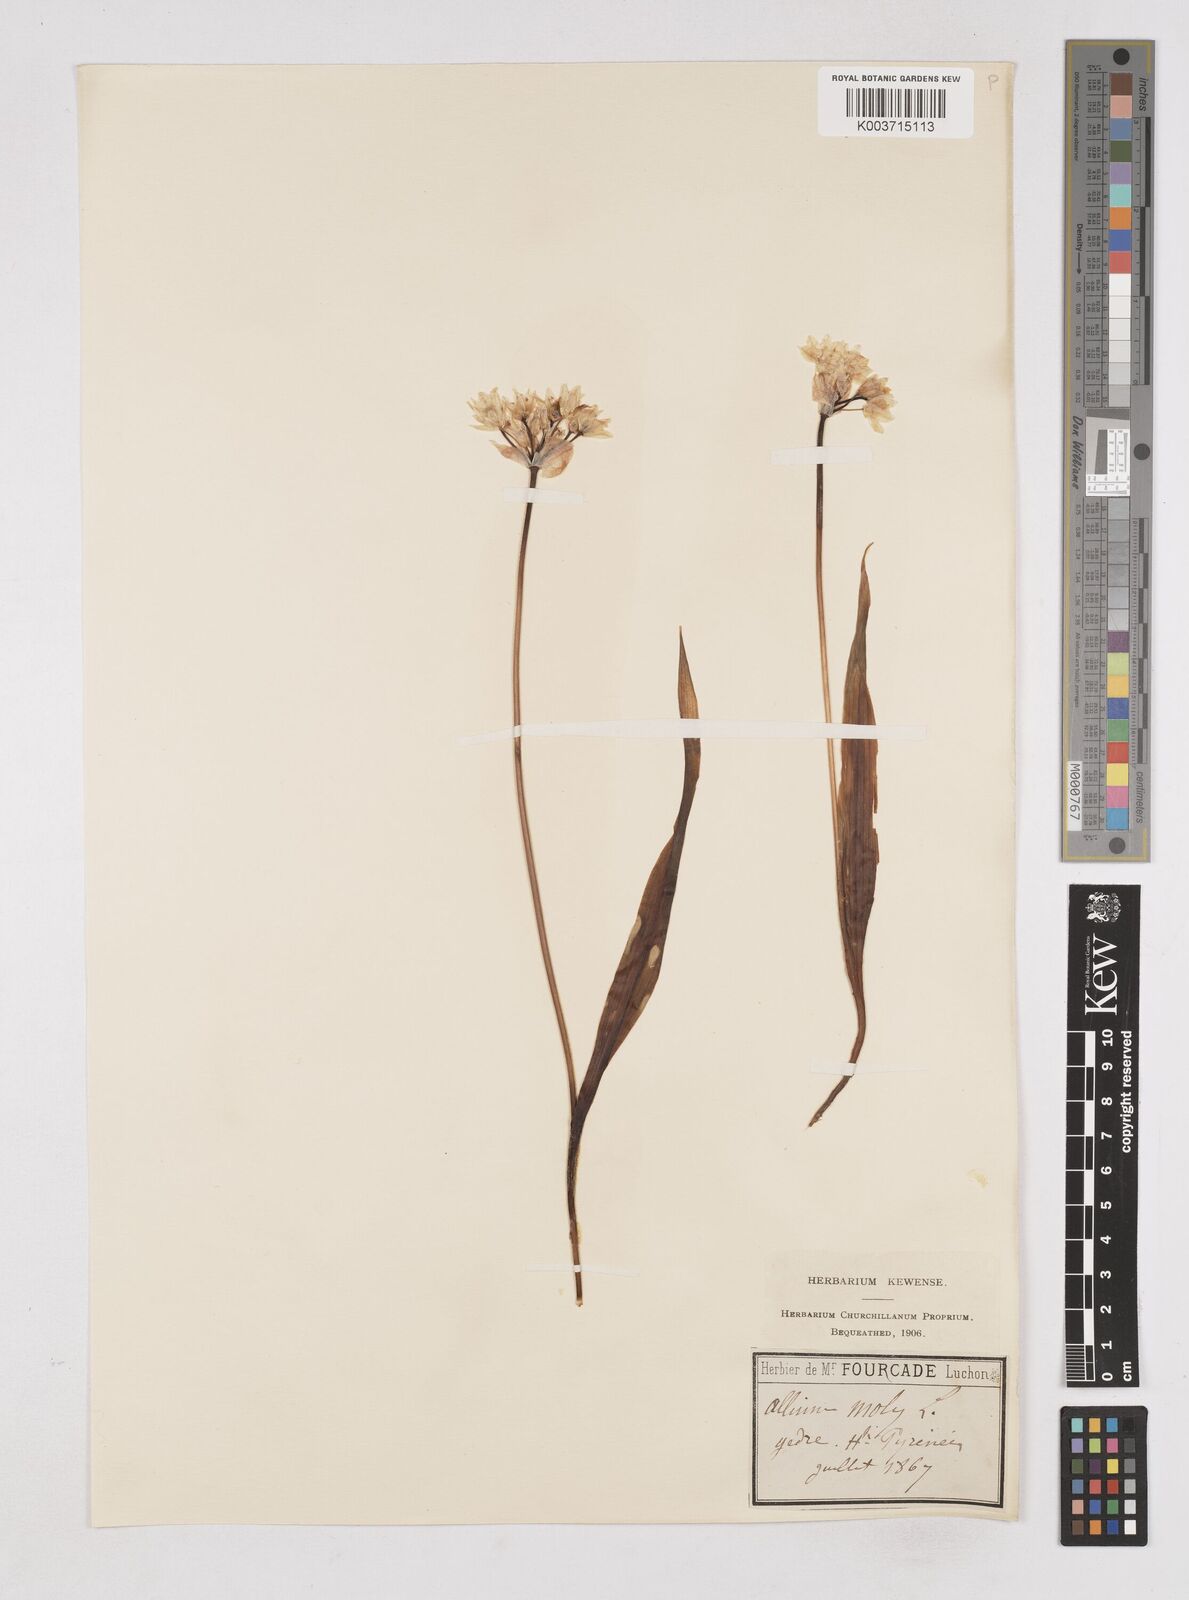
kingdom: Plantae
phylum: Tracheophyta
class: Liliopsida
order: Asparagales
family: Amaryllidaceae
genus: Allium
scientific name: Allium moly
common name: Yellow garlic
